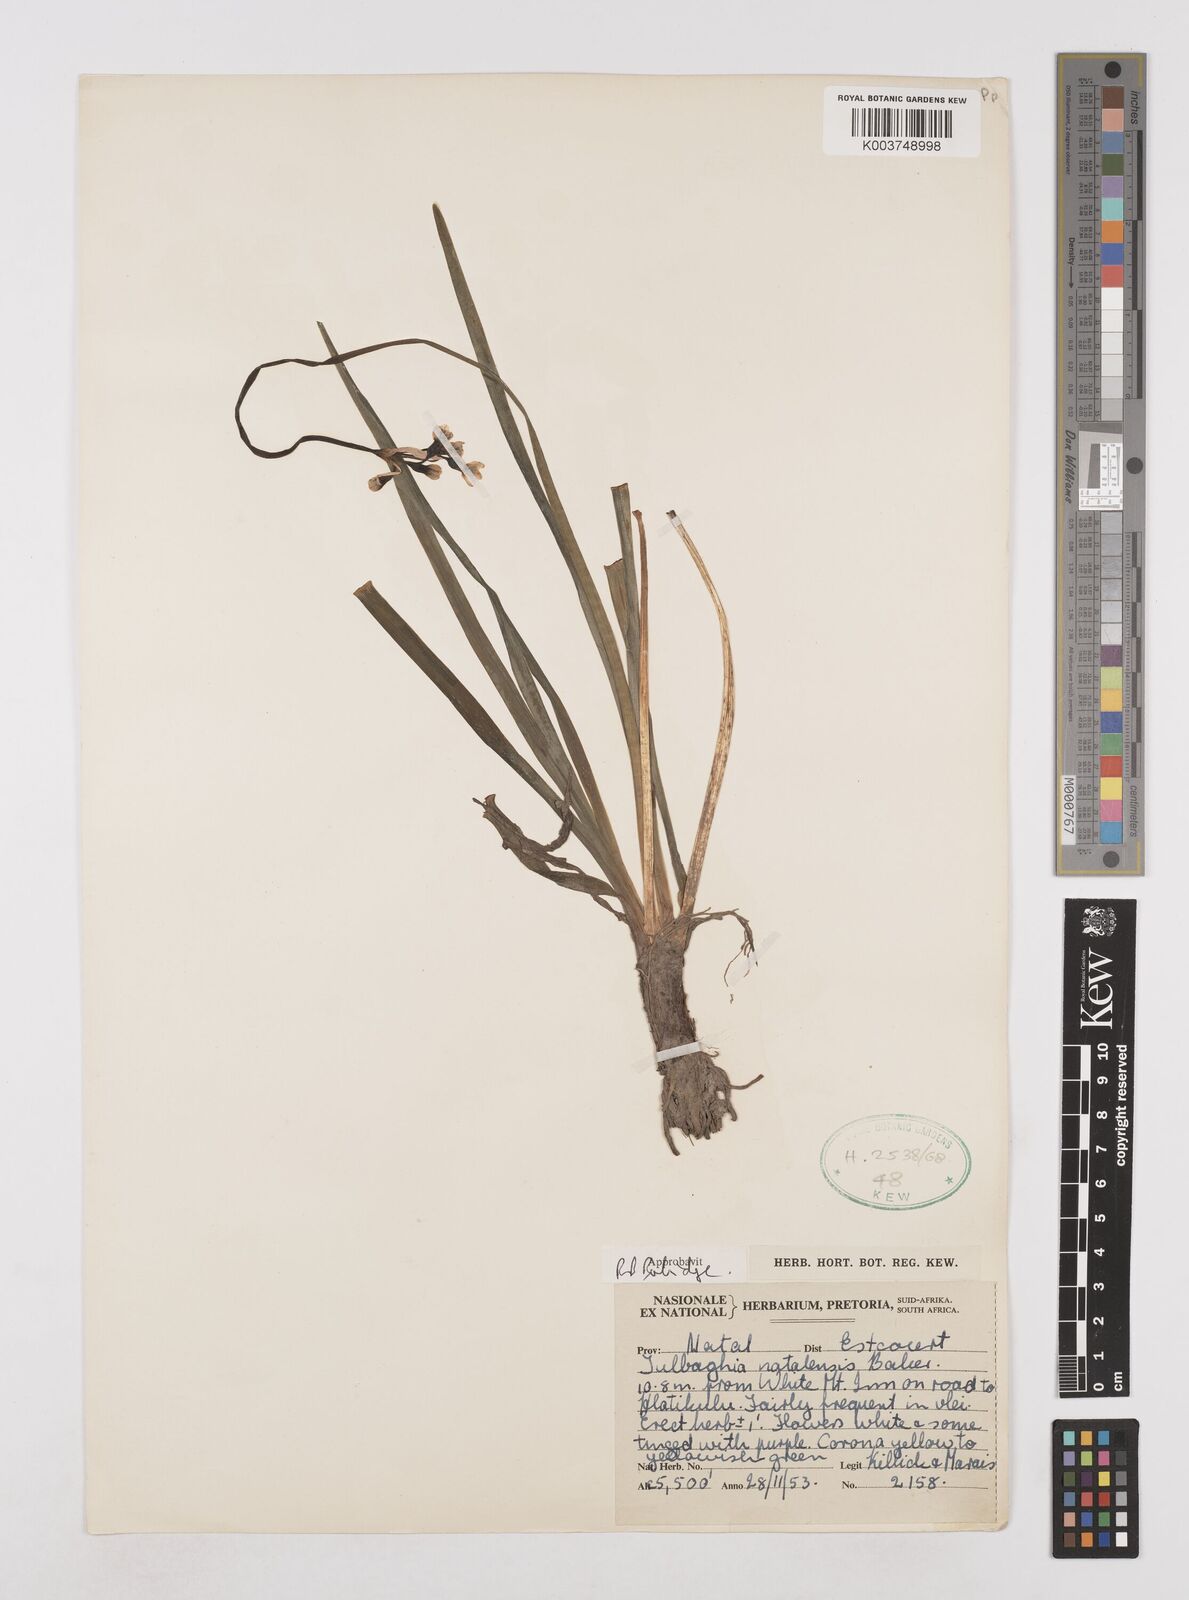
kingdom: Plantae
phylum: Tracheophyta
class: Liliopsida
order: Asparagales
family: Amaryllidaceae
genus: Tulbaghia
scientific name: Tulbaghia natalensis
